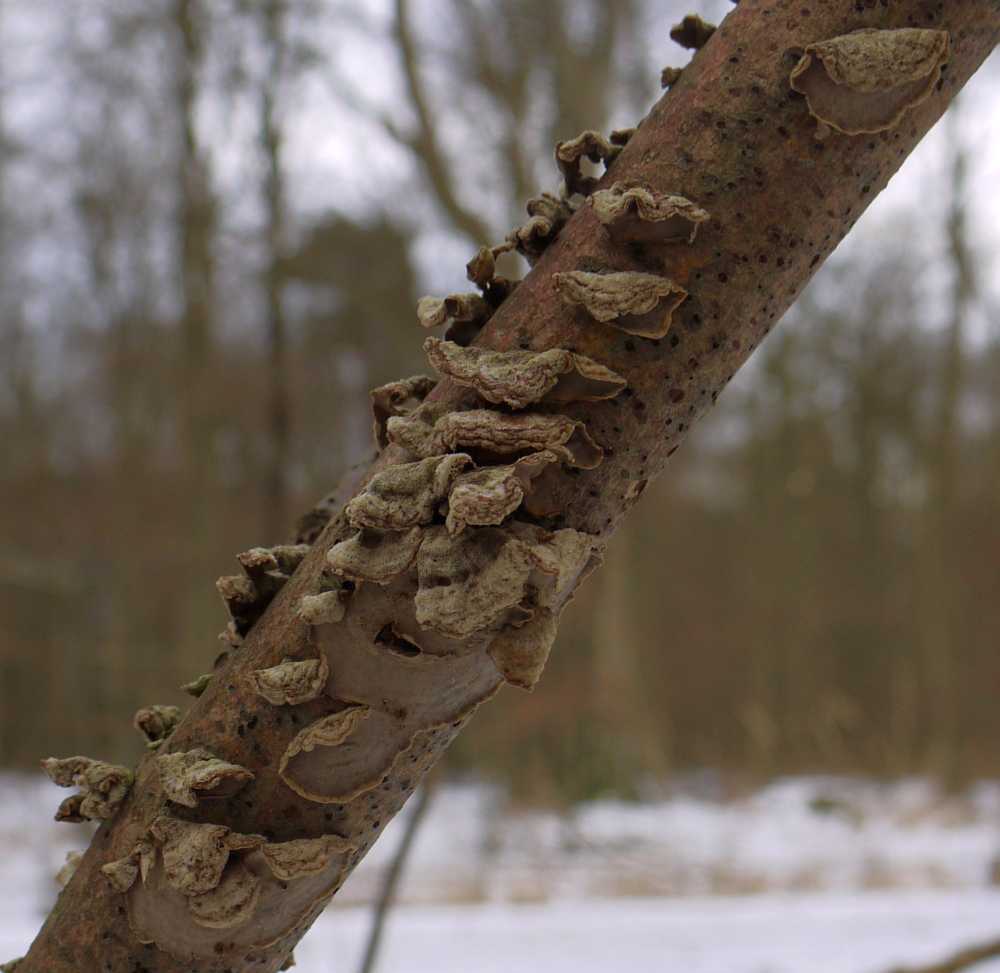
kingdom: Fungi
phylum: Basidiomycota
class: Agaricomycetes
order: Russulales
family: Stereaceae
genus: Stereum
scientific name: Stereum hirsutum
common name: håret lædersvamp
